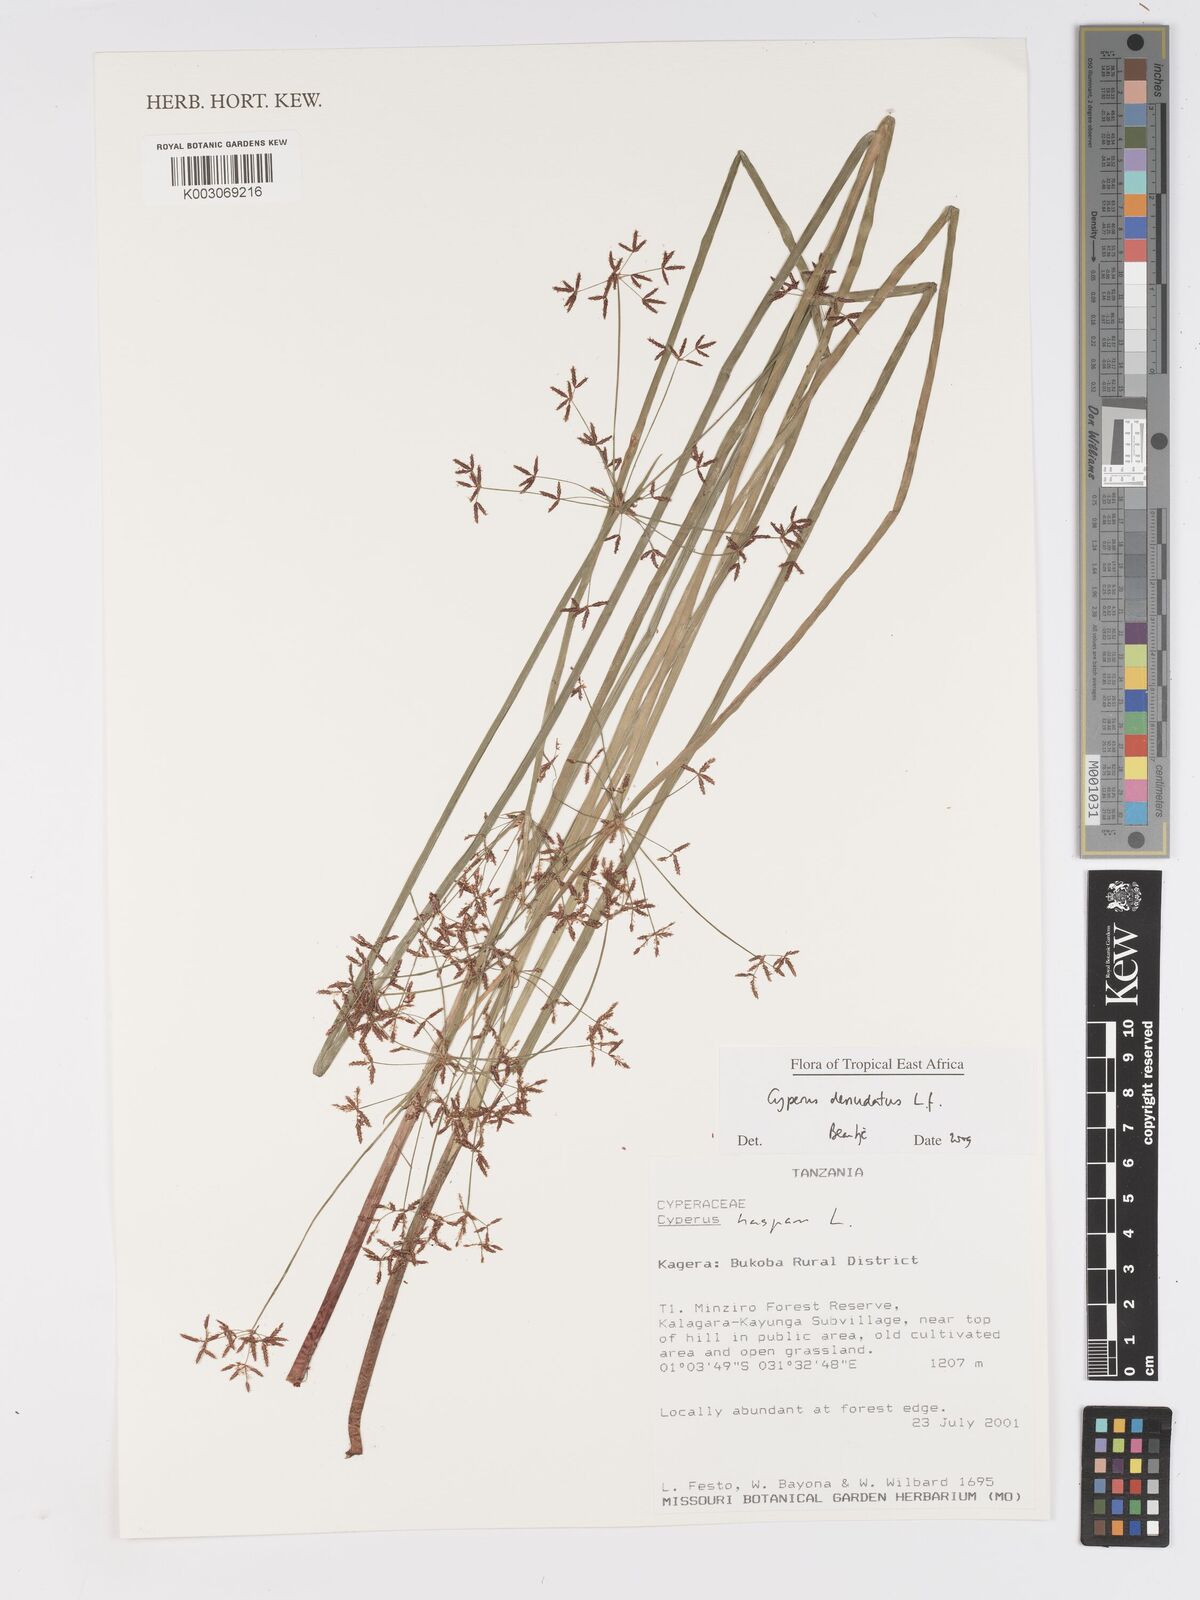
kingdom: Plantae
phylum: Tracheophyta
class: Liliopsida
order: Poales
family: Cyperaceae
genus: Cyperus
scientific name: Cyperus denudatus
